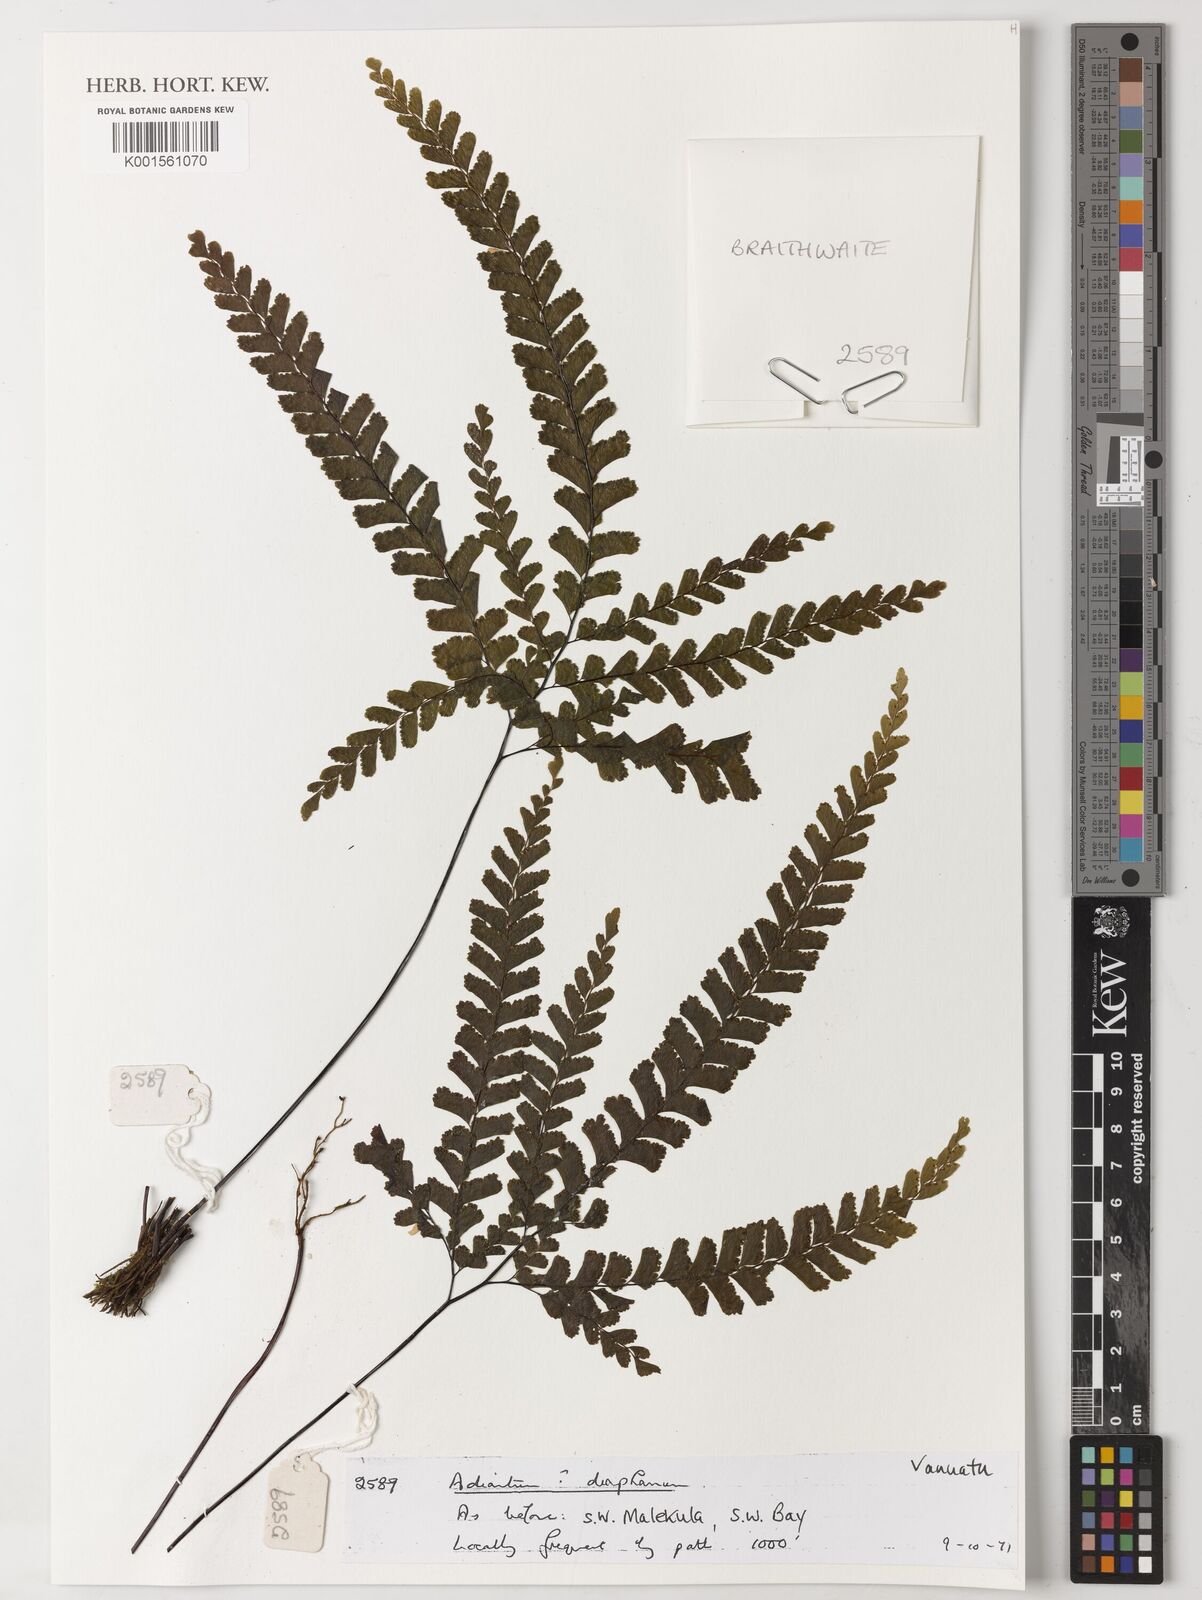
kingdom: Plantae
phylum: Tracheophyta
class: Polypodiopsida
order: Polypodiales
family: Pteridaceae
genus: Adiantum
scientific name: Adiantum diaphanum
